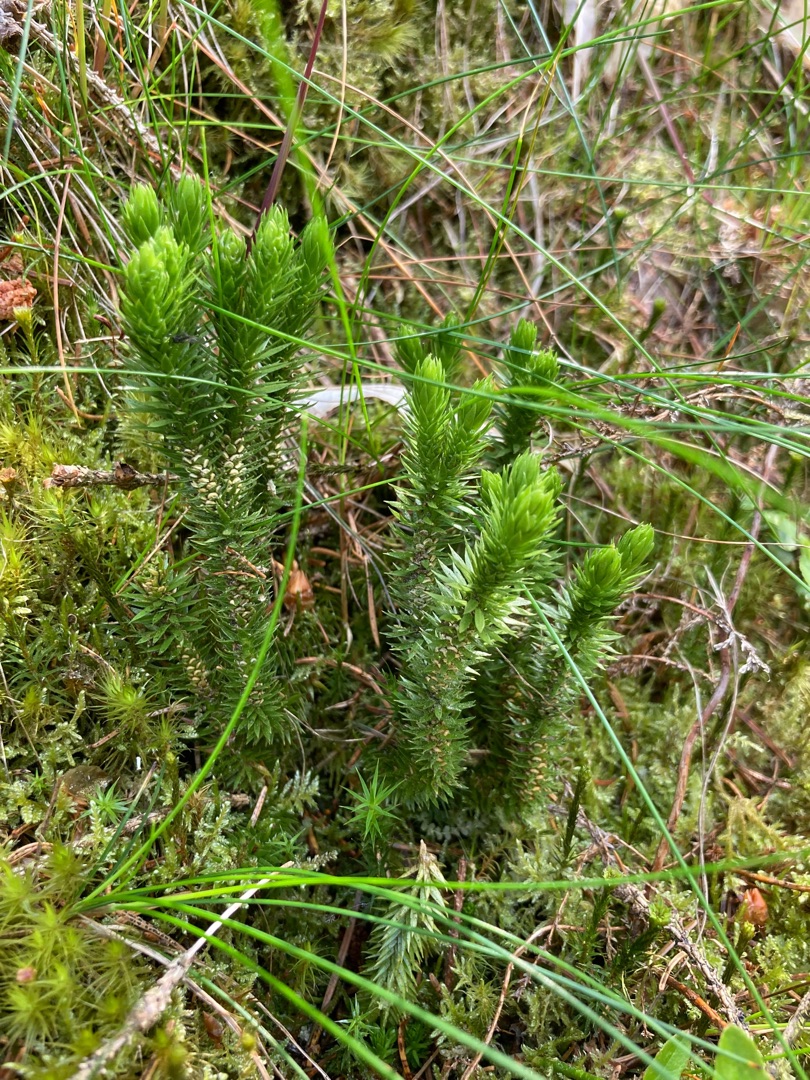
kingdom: Plantae
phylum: Tracheophyta
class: Lycopodiopsida
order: Lycopodiales
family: Lycopodiaceae
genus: Huperzia
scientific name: Huperzia selago
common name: Otteradet ulvefod
